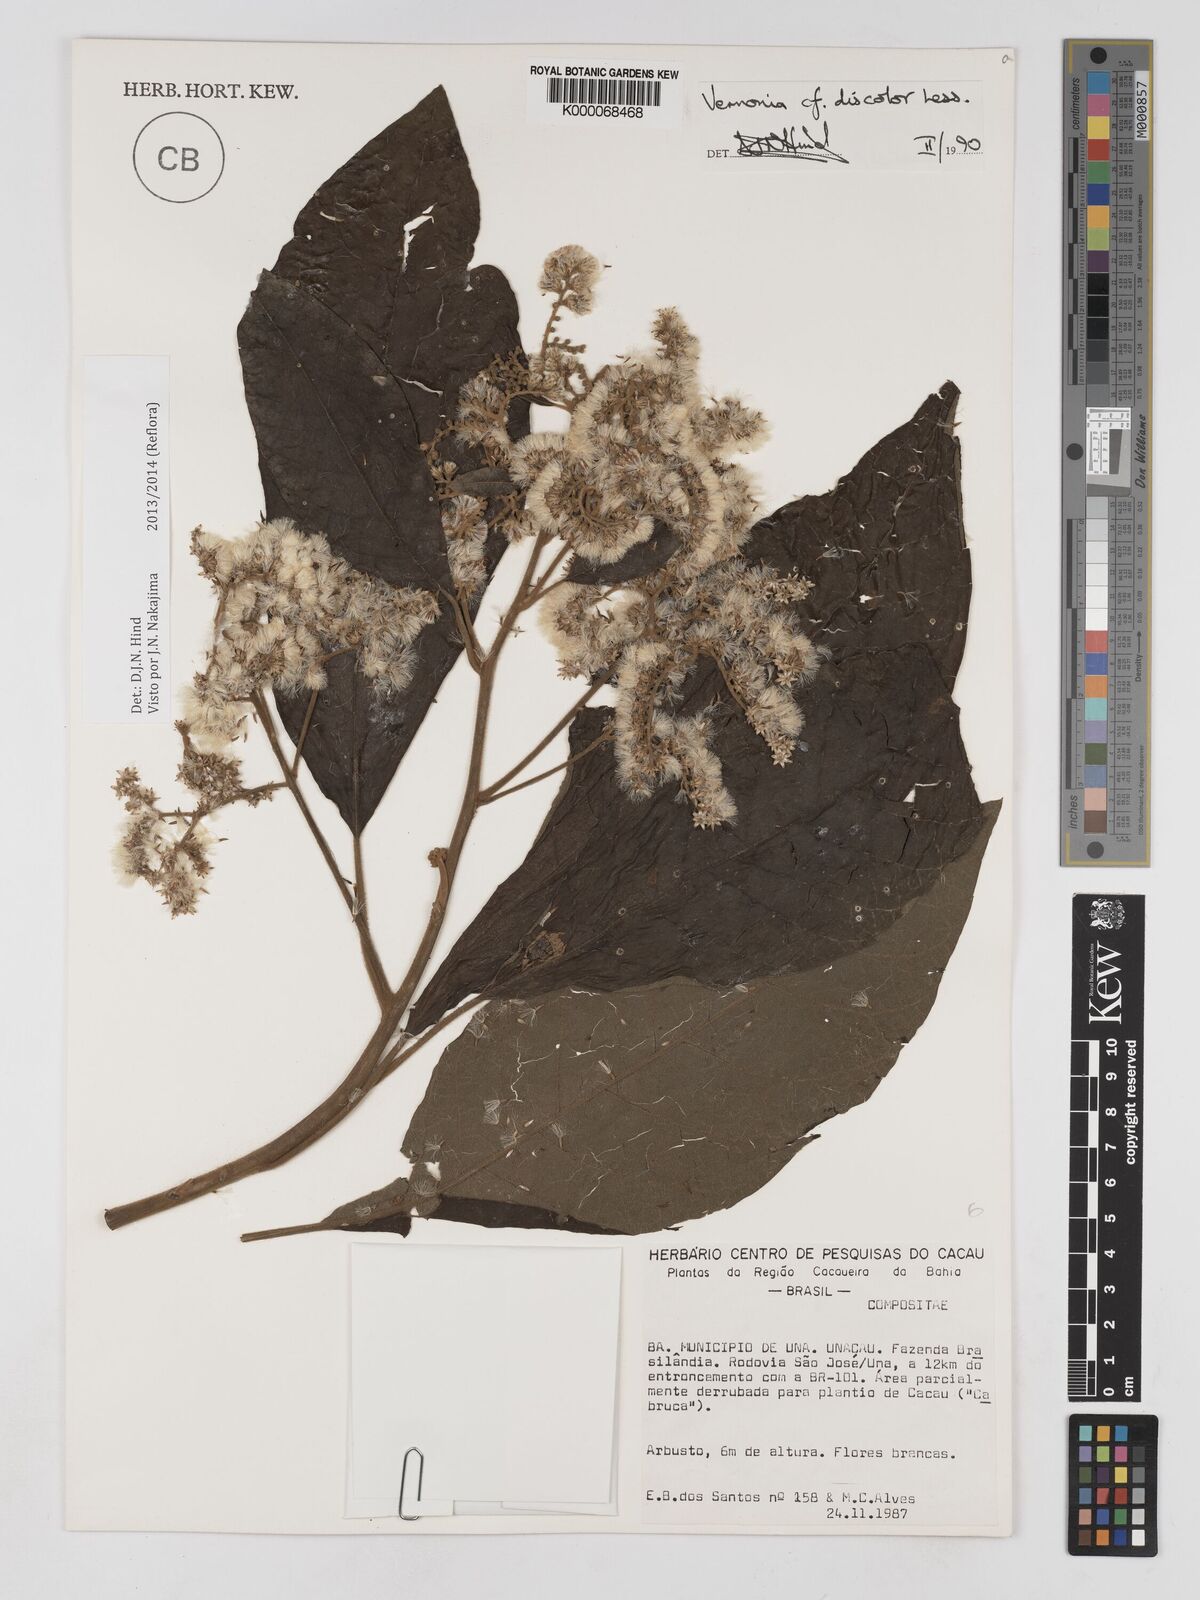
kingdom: Plantae
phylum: Tracheophyta
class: Magnoliopsida
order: Asterales
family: Asteraceae
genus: Vernonanthura
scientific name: Vernonanthura discolor
